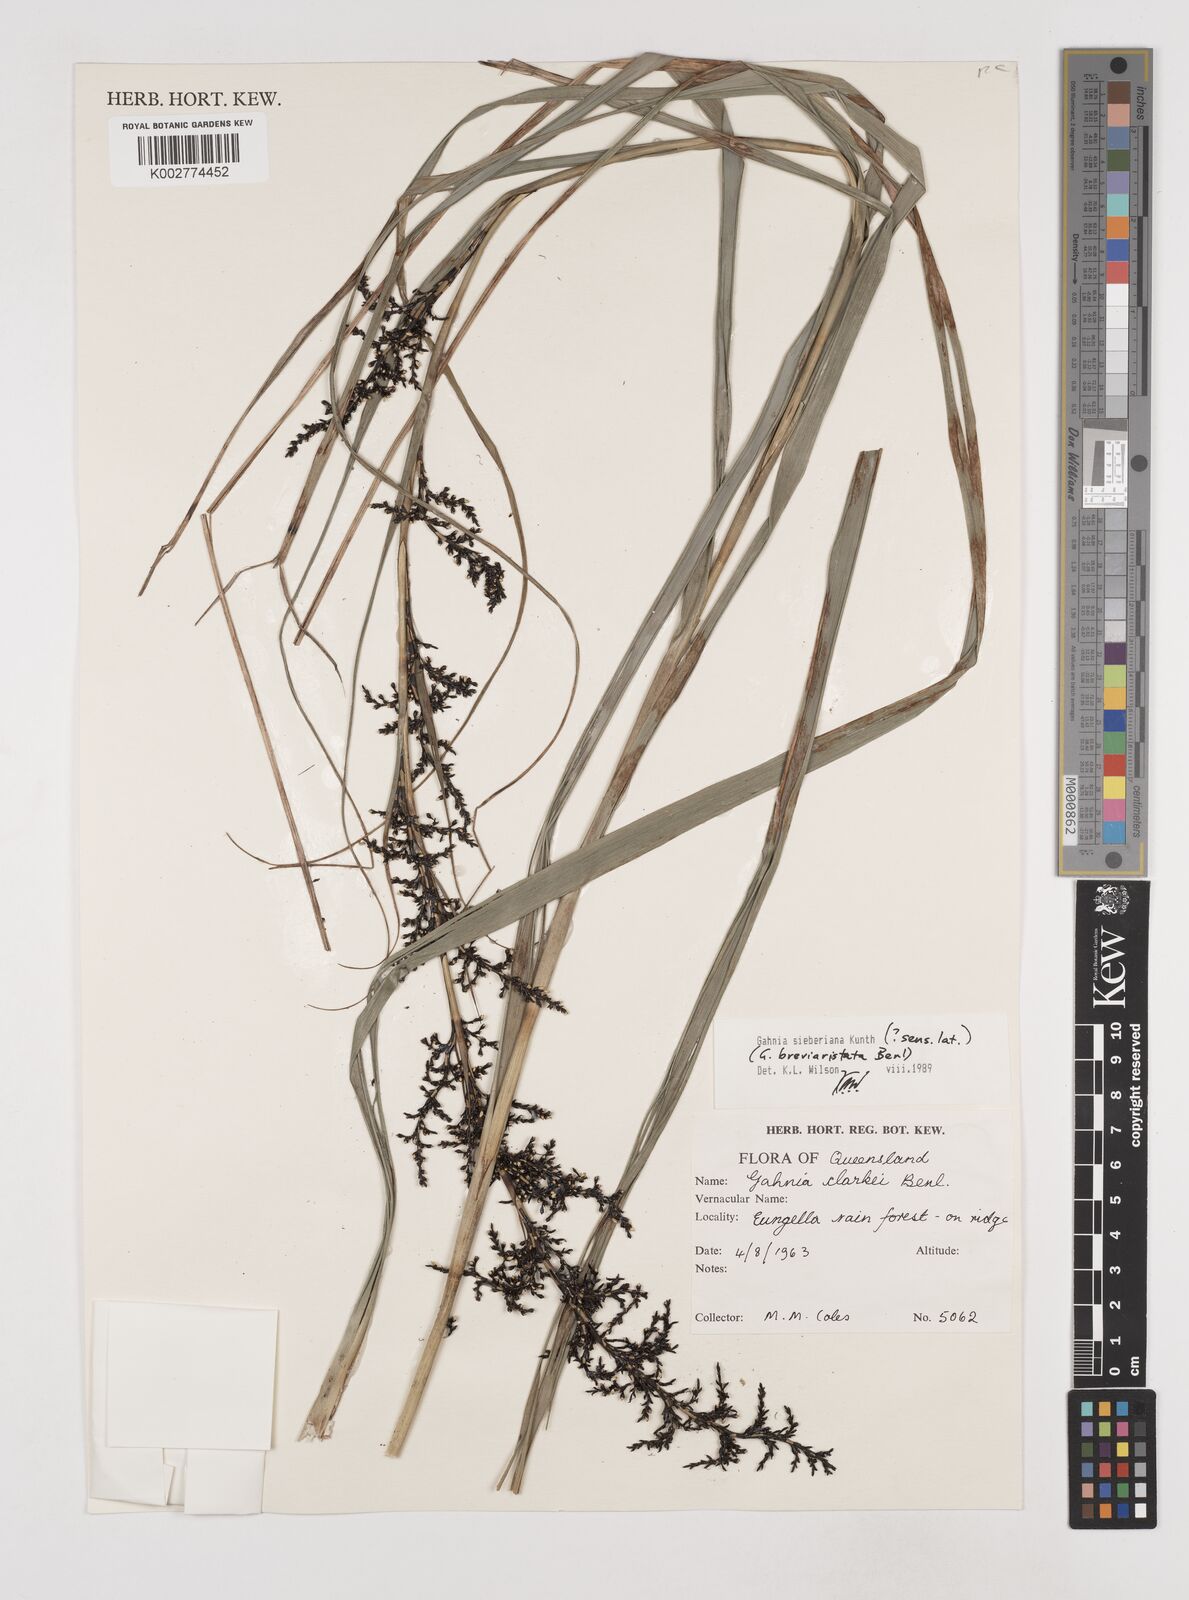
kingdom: Plantae
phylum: Tracheophyta
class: Liliopsida
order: Poales
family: Cyperaceae
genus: Gahnia
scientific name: Gahnia sieberiana
